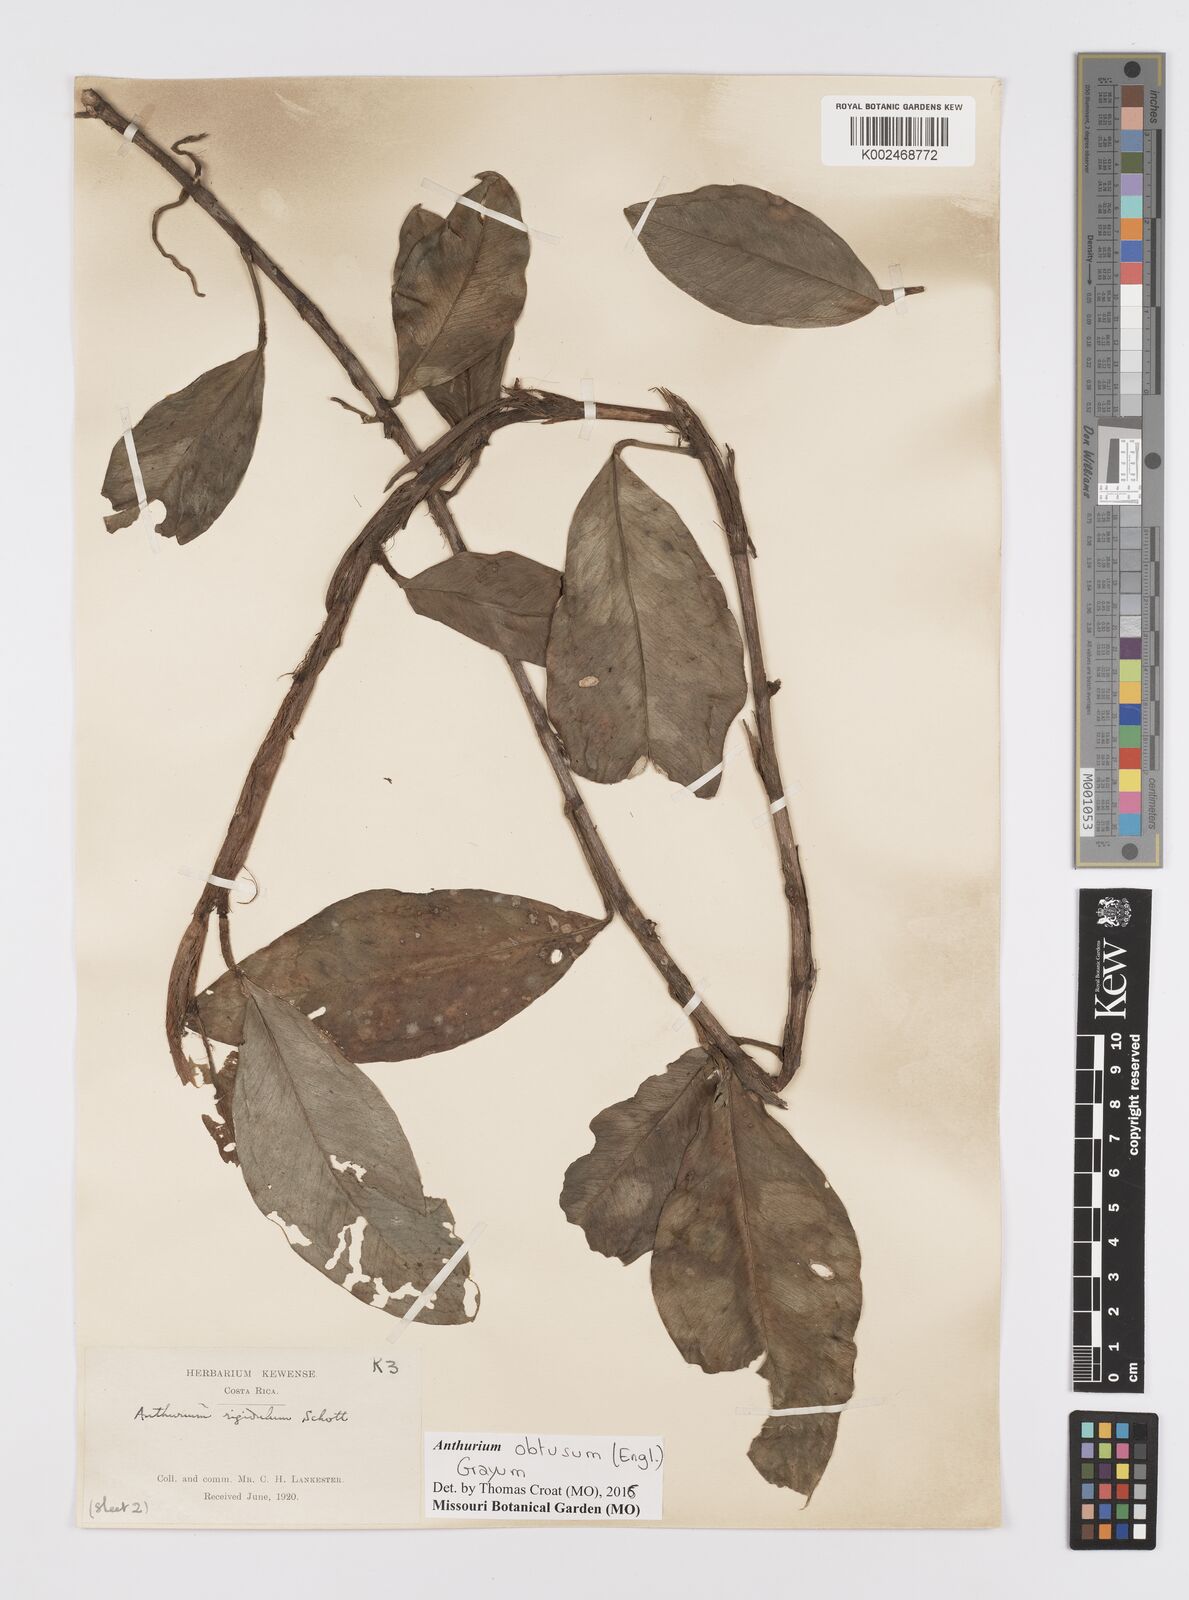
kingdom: Plantae
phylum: Tracheophyta
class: Liliopsida
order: Alismatales
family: Araceae
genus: Anthurium
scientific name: Anthurium obtusum
